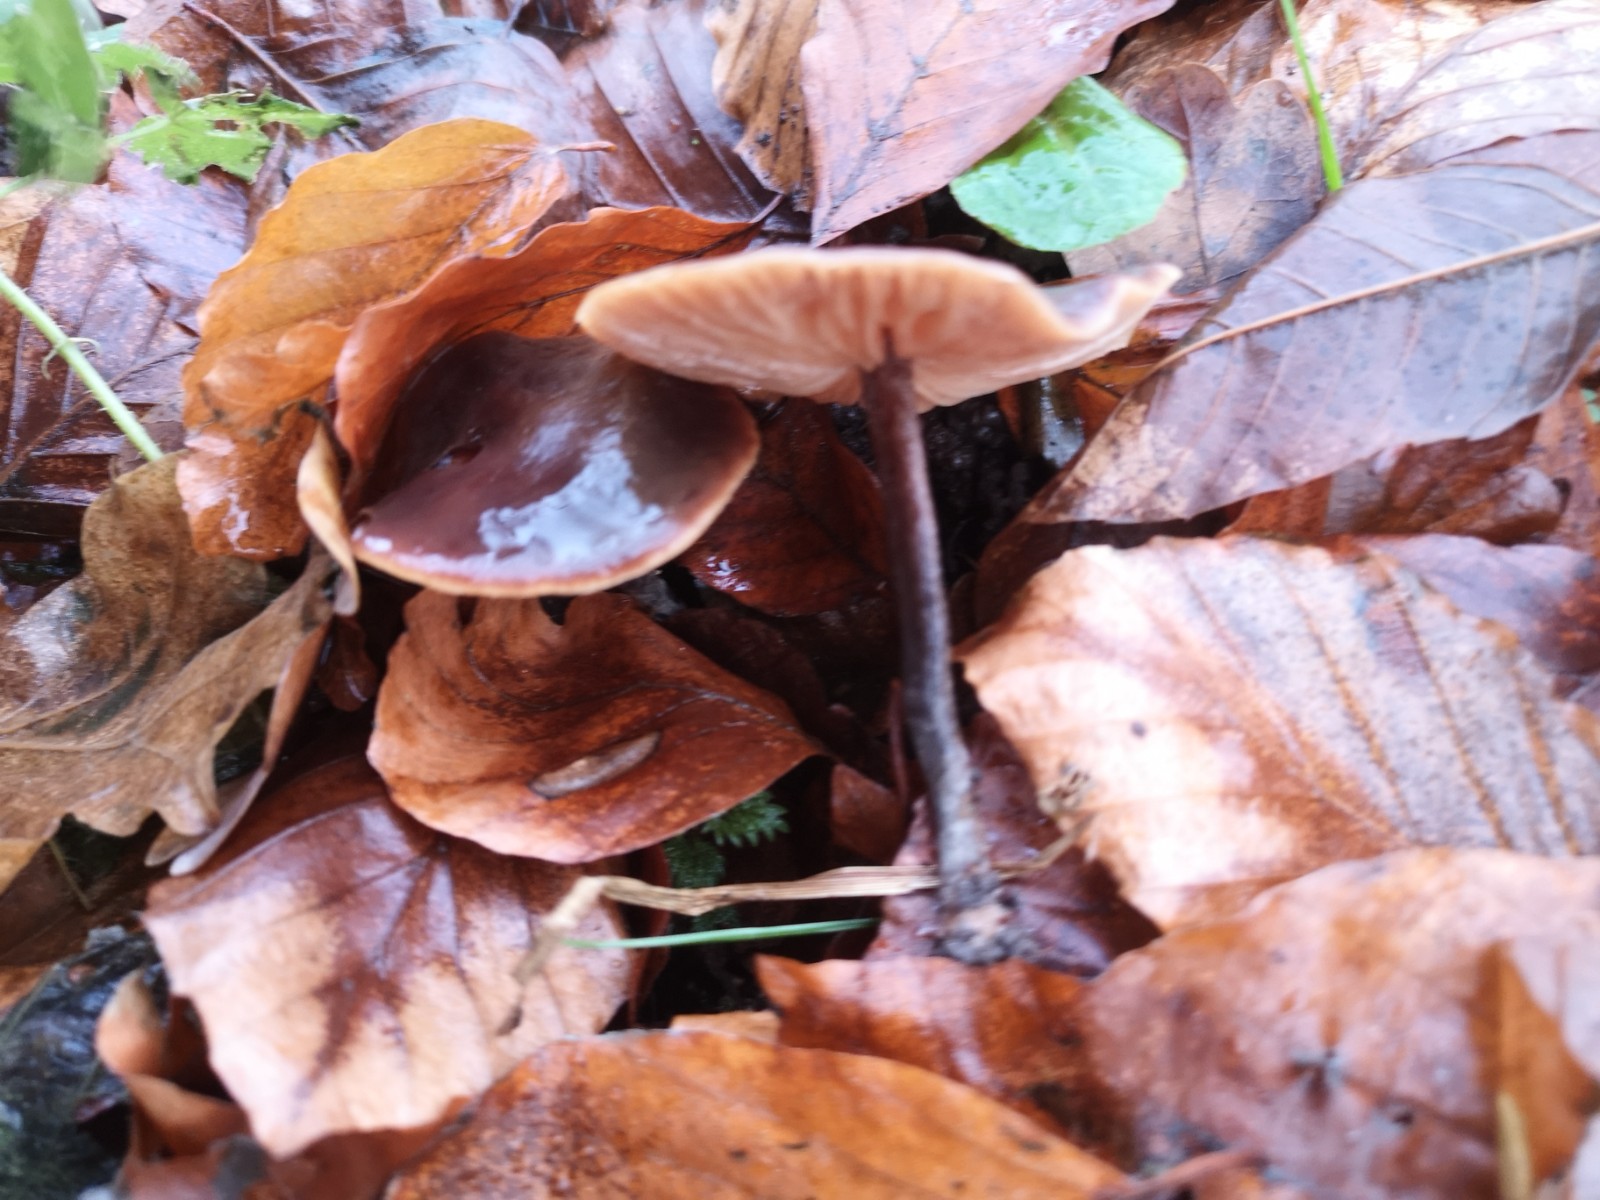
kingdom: Fungi
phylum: Basidiomycota
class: Agaricomycetes
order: Agaricales
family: Macrocystidiaceae
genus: Macrocystidia
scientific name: Macrocystidia cucumis
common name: agurkehat
